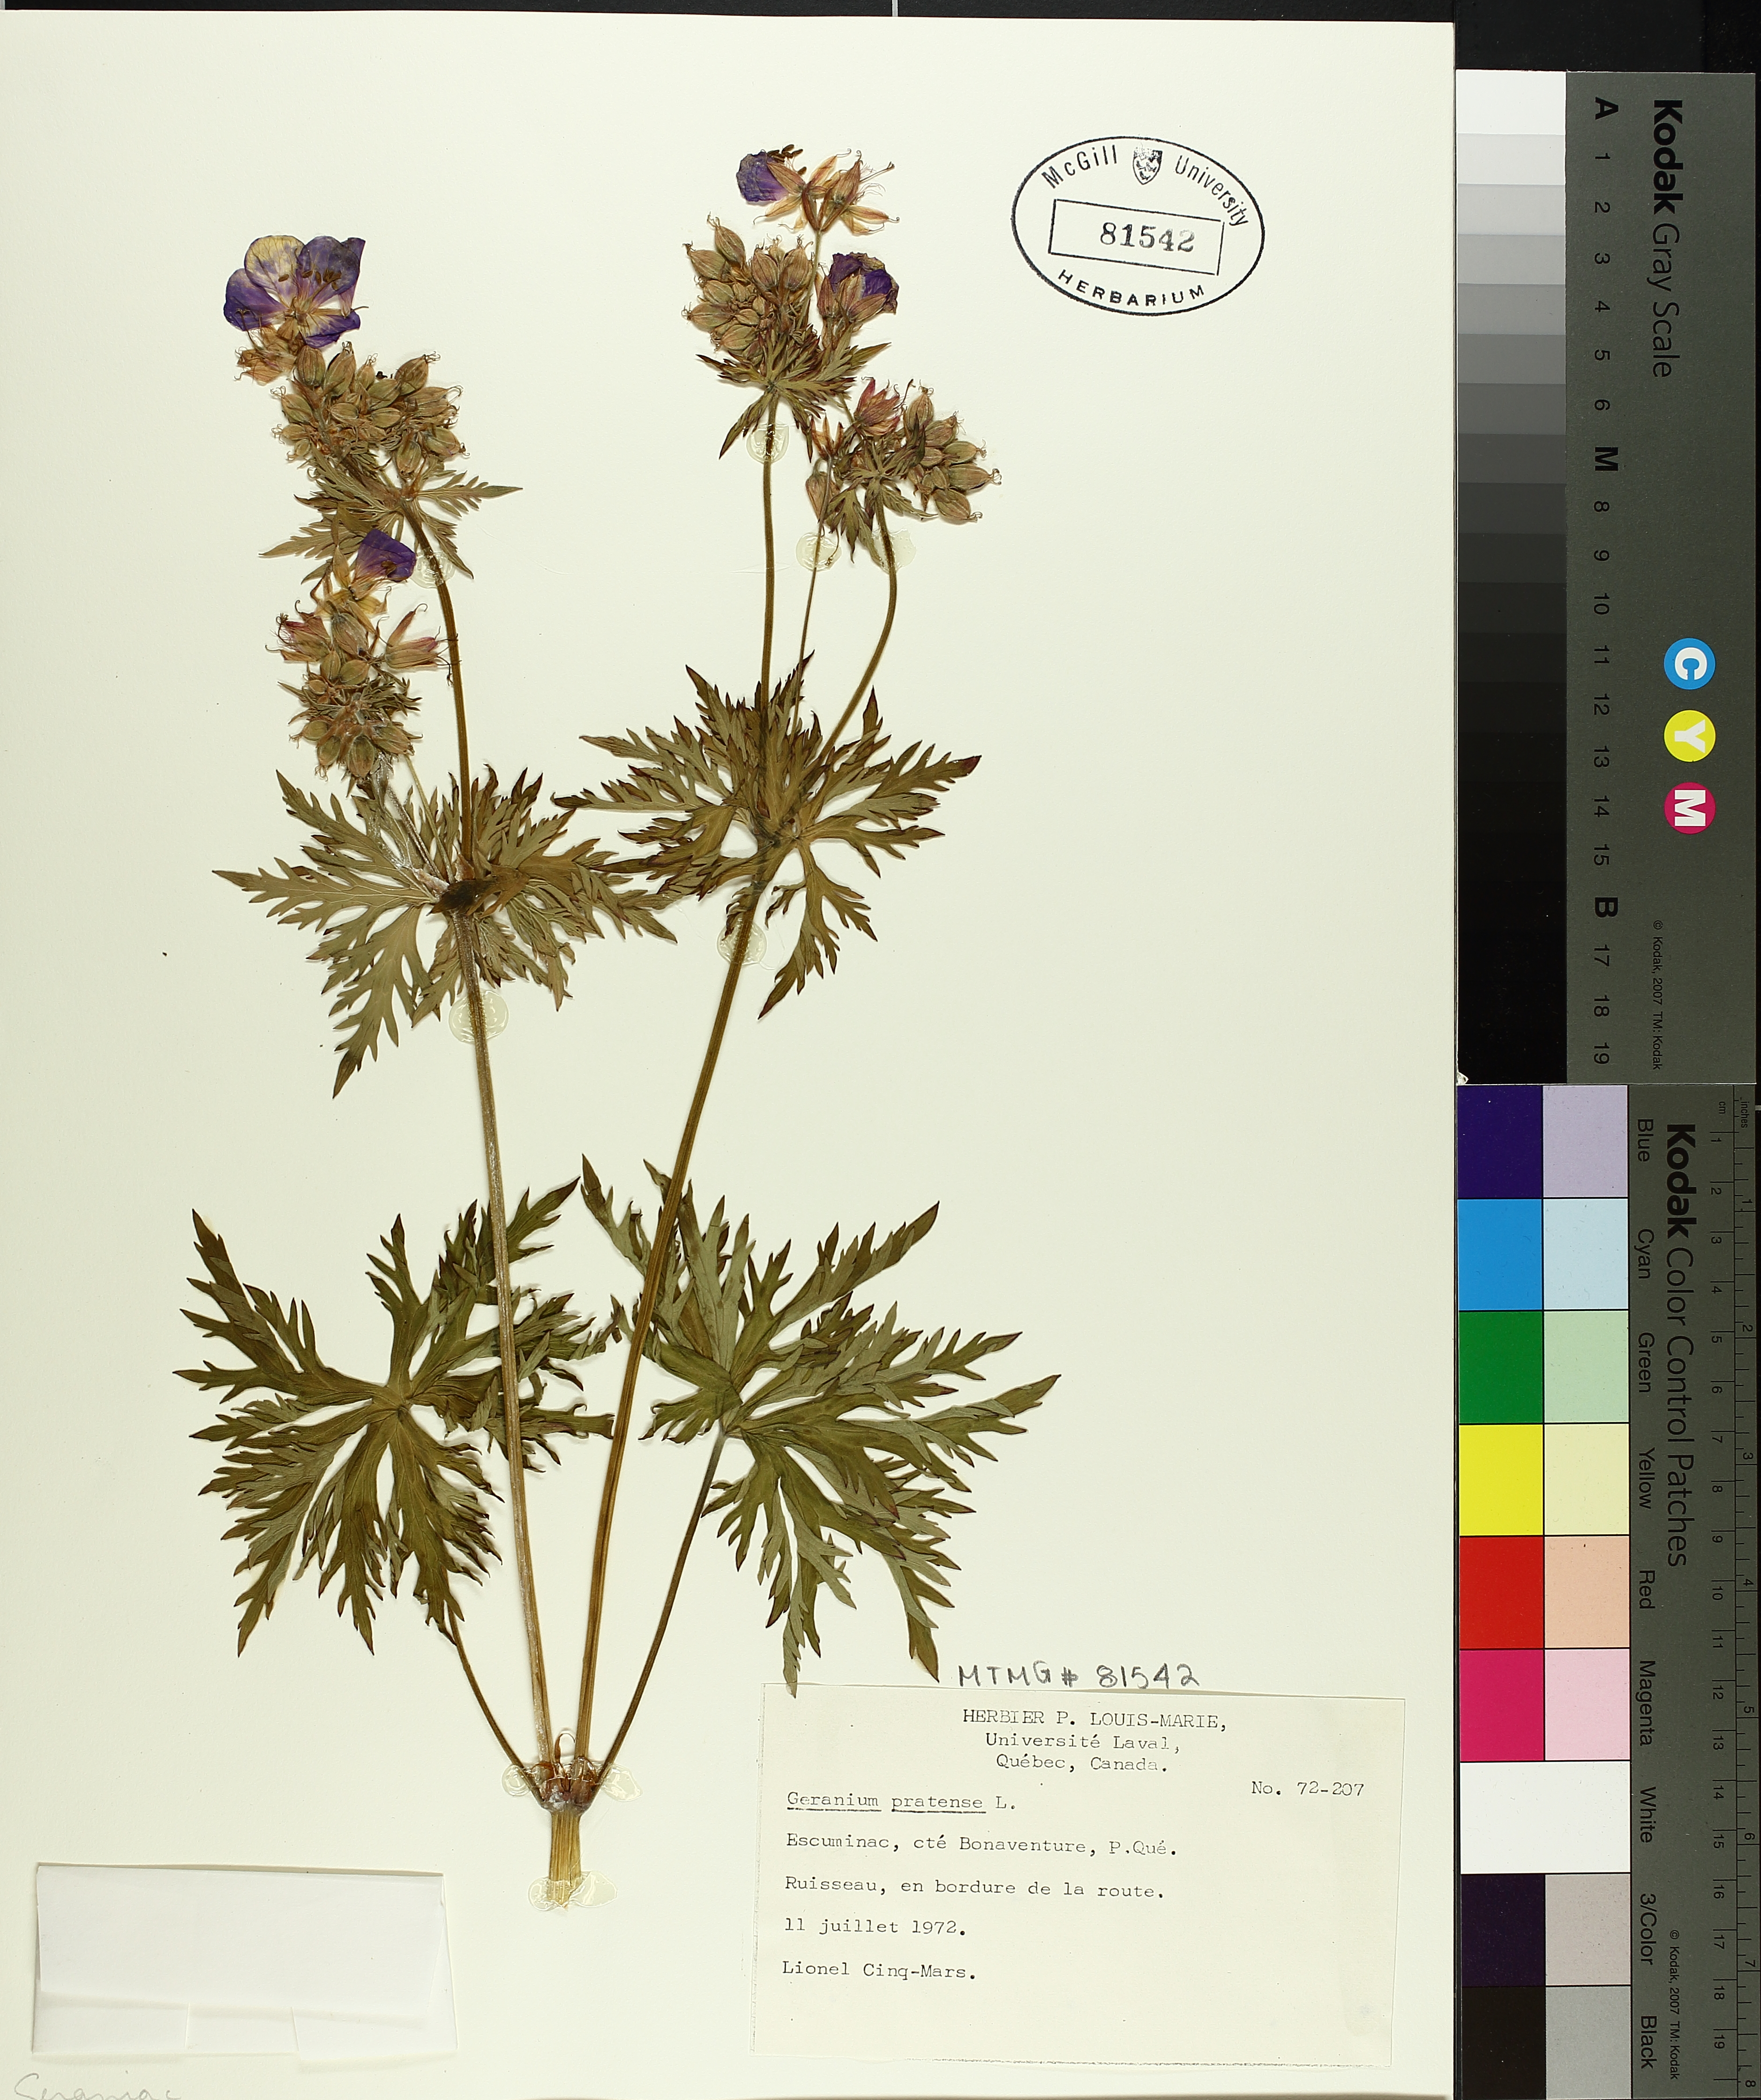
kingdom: Plantae
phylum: Tracheophyta
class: Magnoliopsida
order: Geraniales
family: Geraniaceae
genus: Geranium
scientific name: Geranium pratense
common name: Meadow crane's-bill
